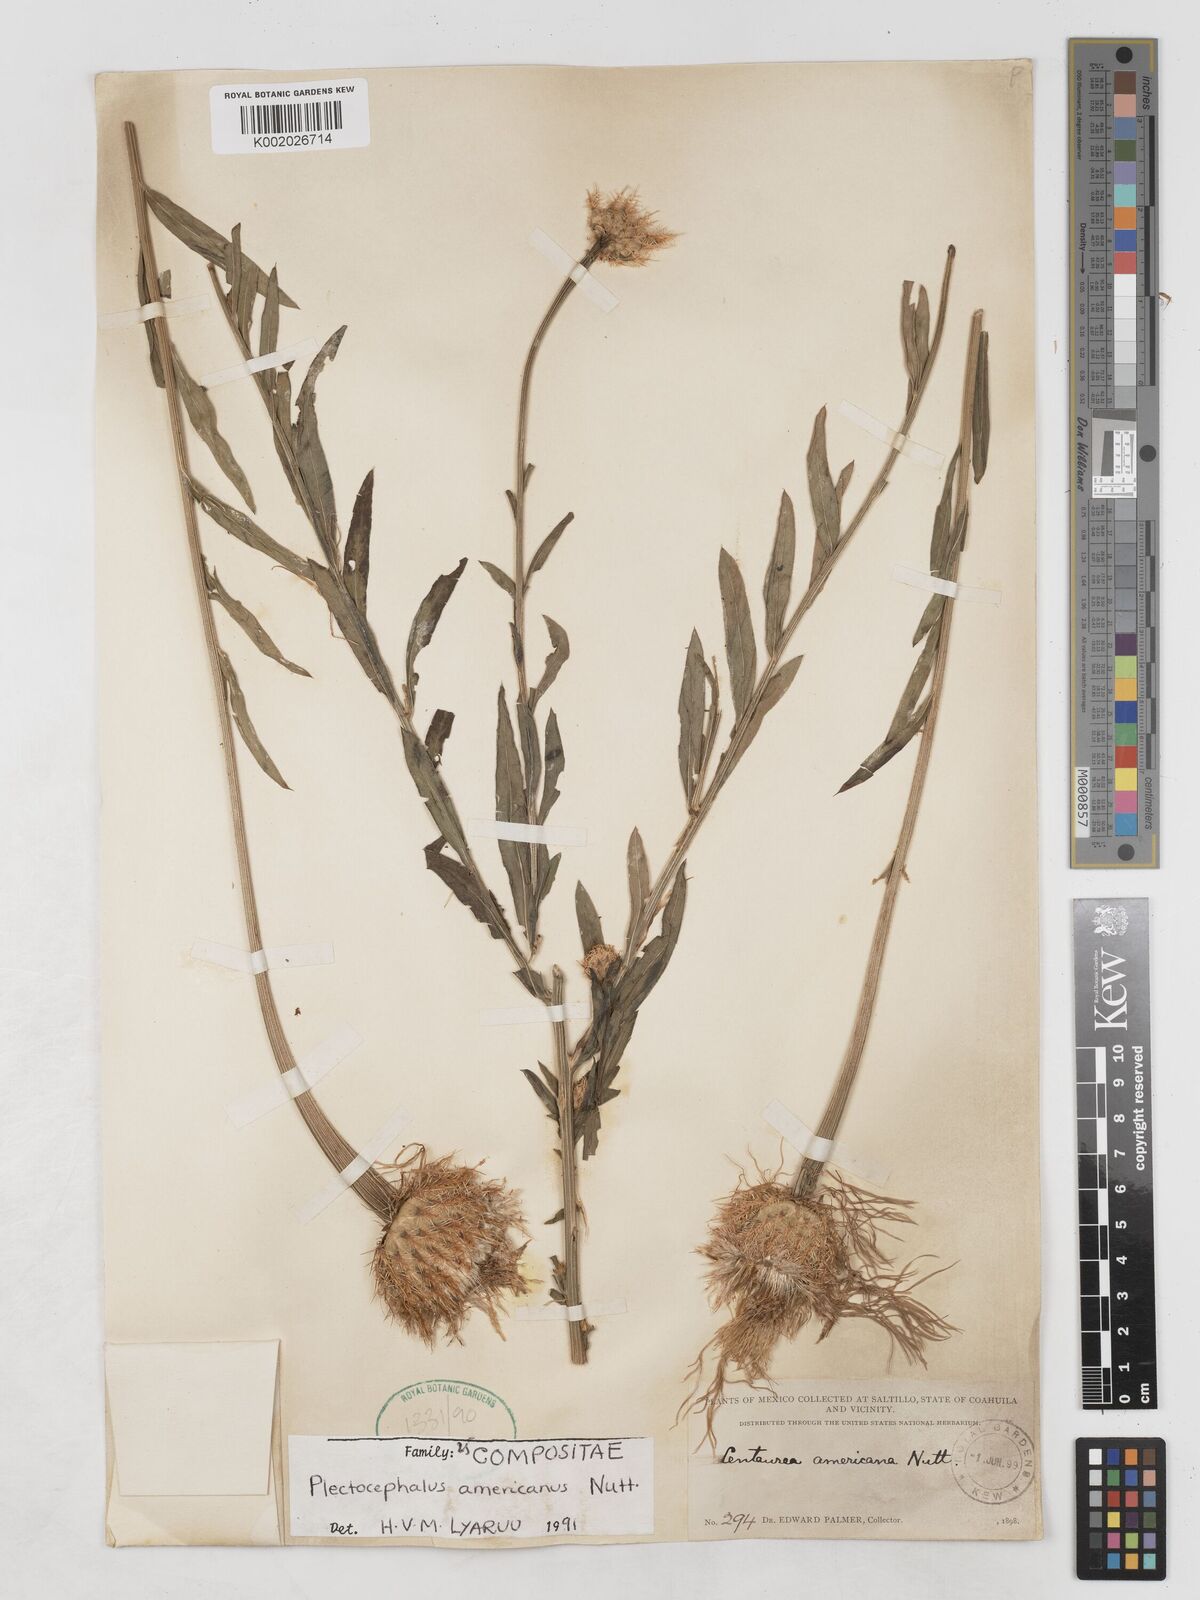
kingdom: Plantae
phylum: Tracheophyta
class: Magnoliopsida
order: Asterales
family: Asteraceae
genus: Plectocephalus
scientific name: Plectocephalus americanus
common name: American basket-flower
